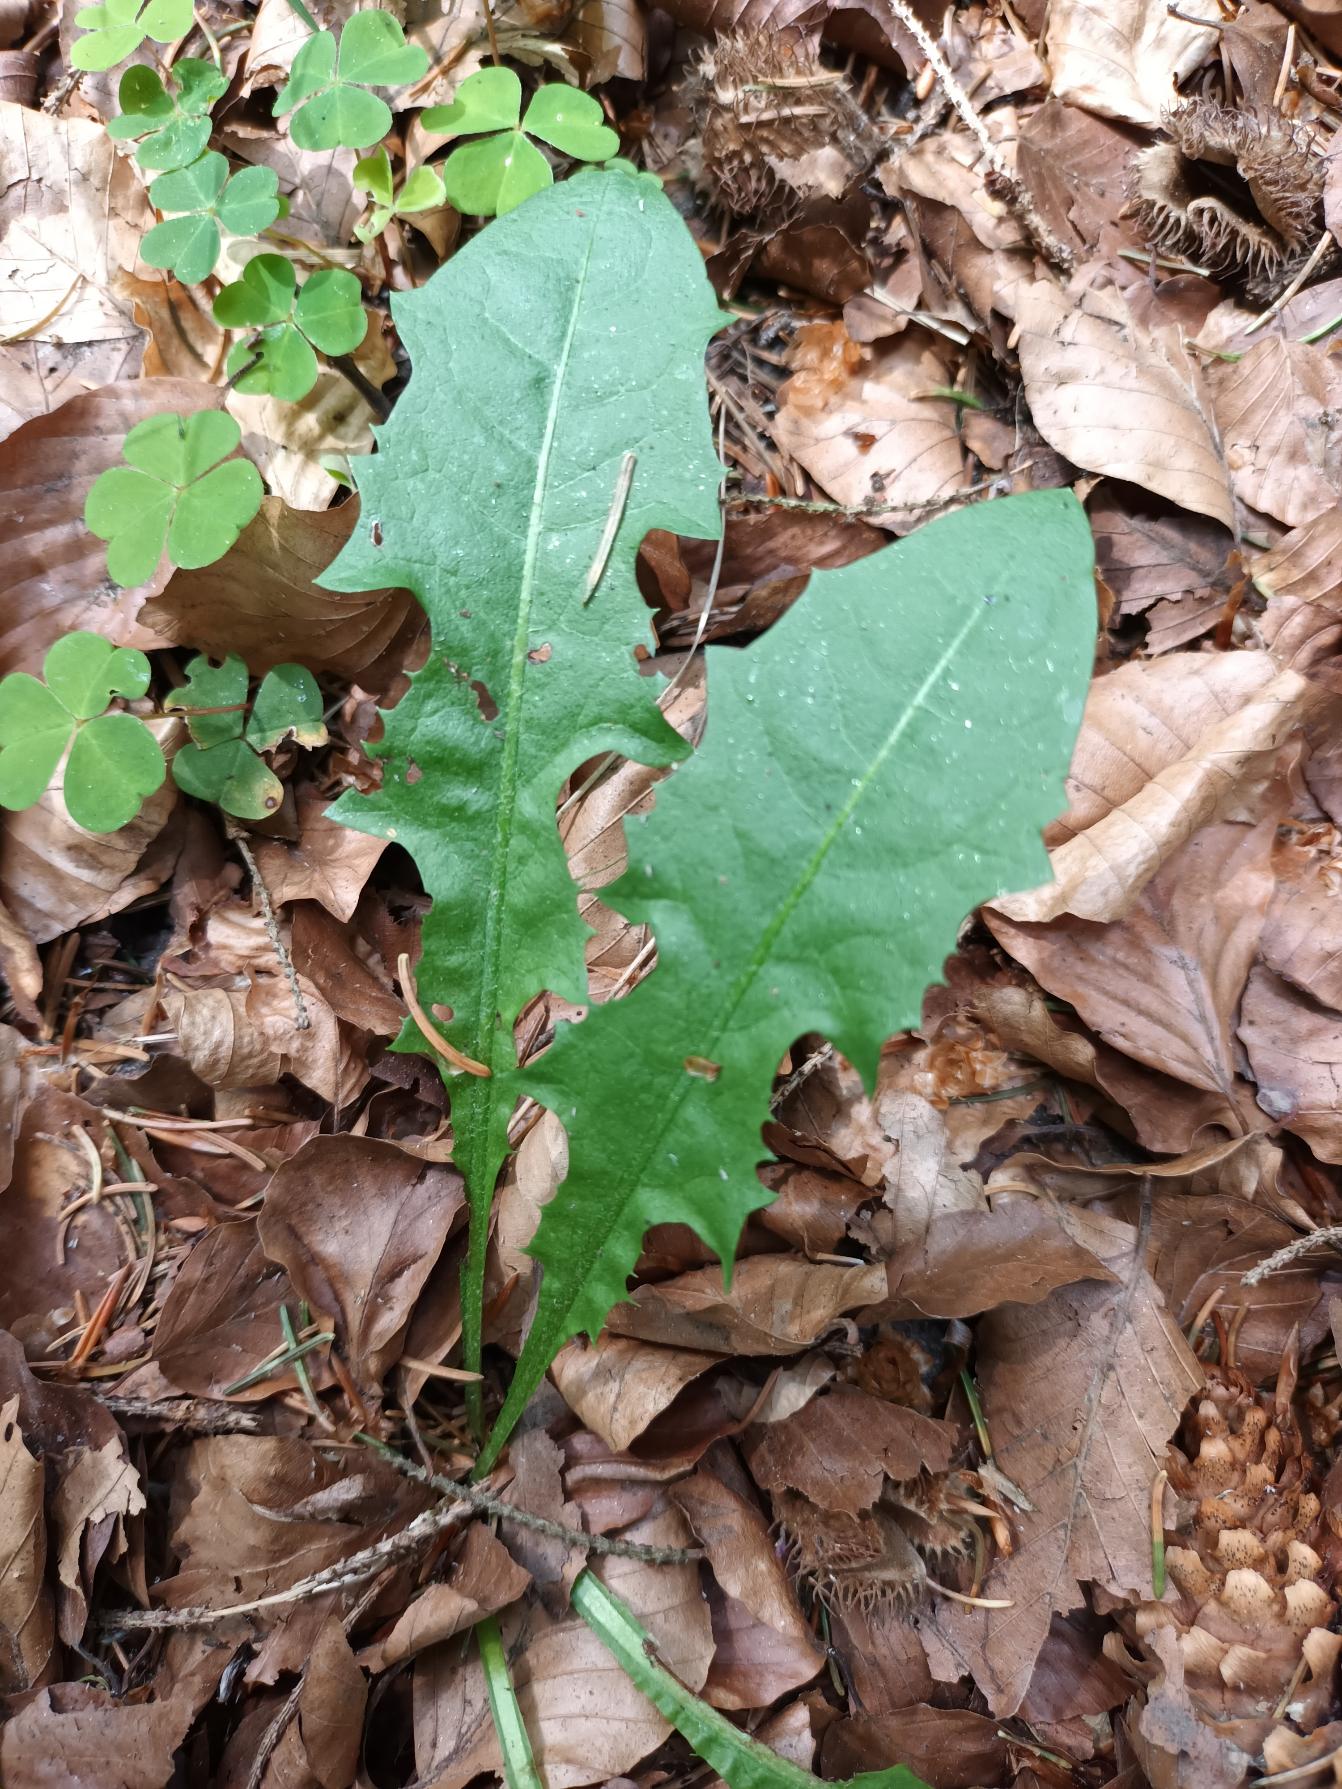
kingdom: Plantae
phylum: Tracheophyta
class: Magnoliopsida
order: Asterales
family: Asteraceae
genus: Taraxacum
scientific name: Taraxacum
